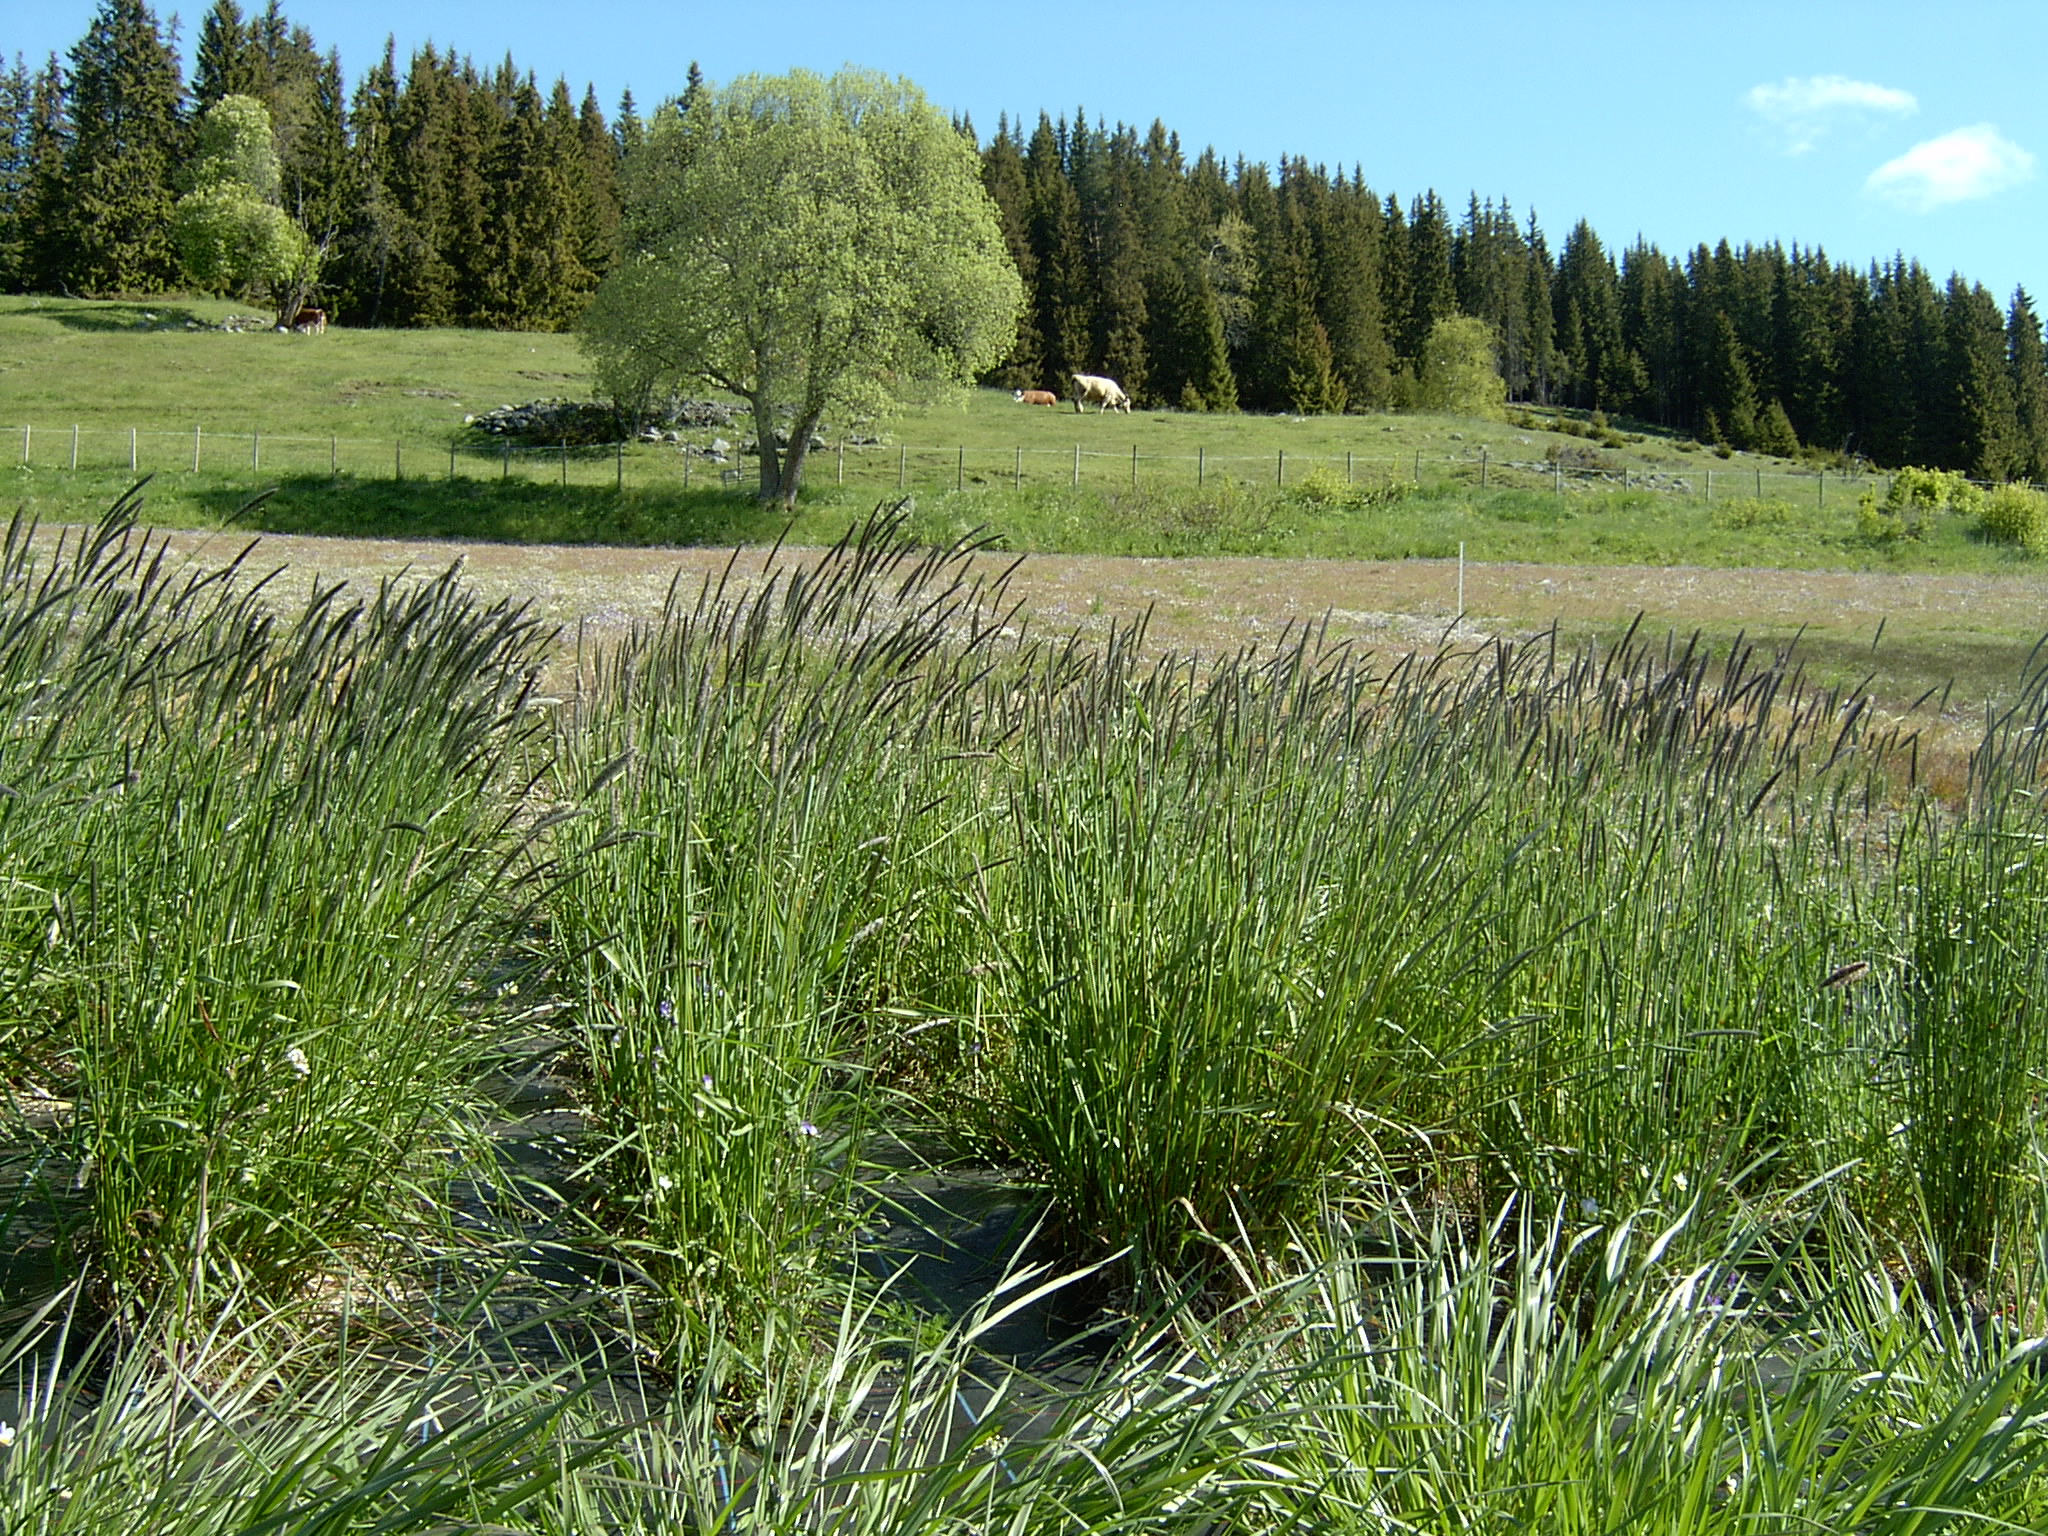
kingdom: Plantae
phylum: Tracheophyta
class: Liliopsida
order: Poales
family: Poaceae
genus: Alopecurus
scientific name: Alopecurus pratensis
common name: Meadow foxtail
